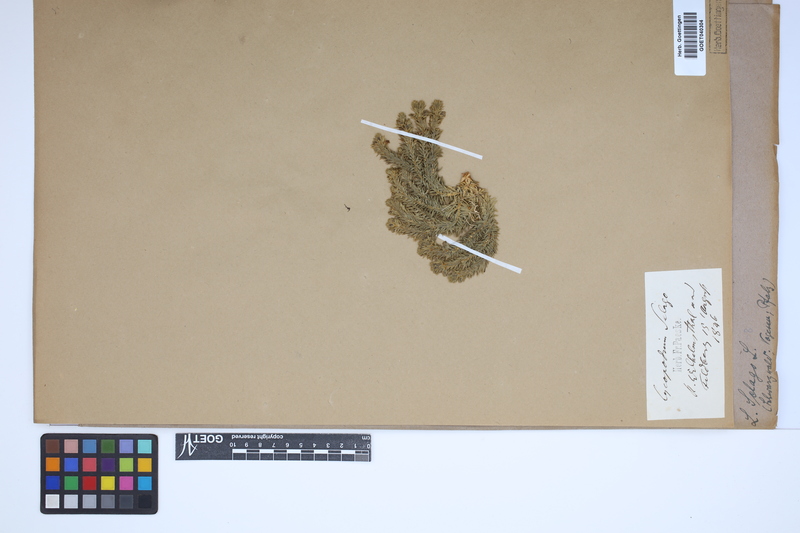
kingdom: Plantae
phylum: Tracheophyta
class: Lycopodiopsida
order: Lycopodiales
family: Lycopodiaceae
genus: Huperzia
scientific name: Huperzia selago
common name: Northern firmoss
